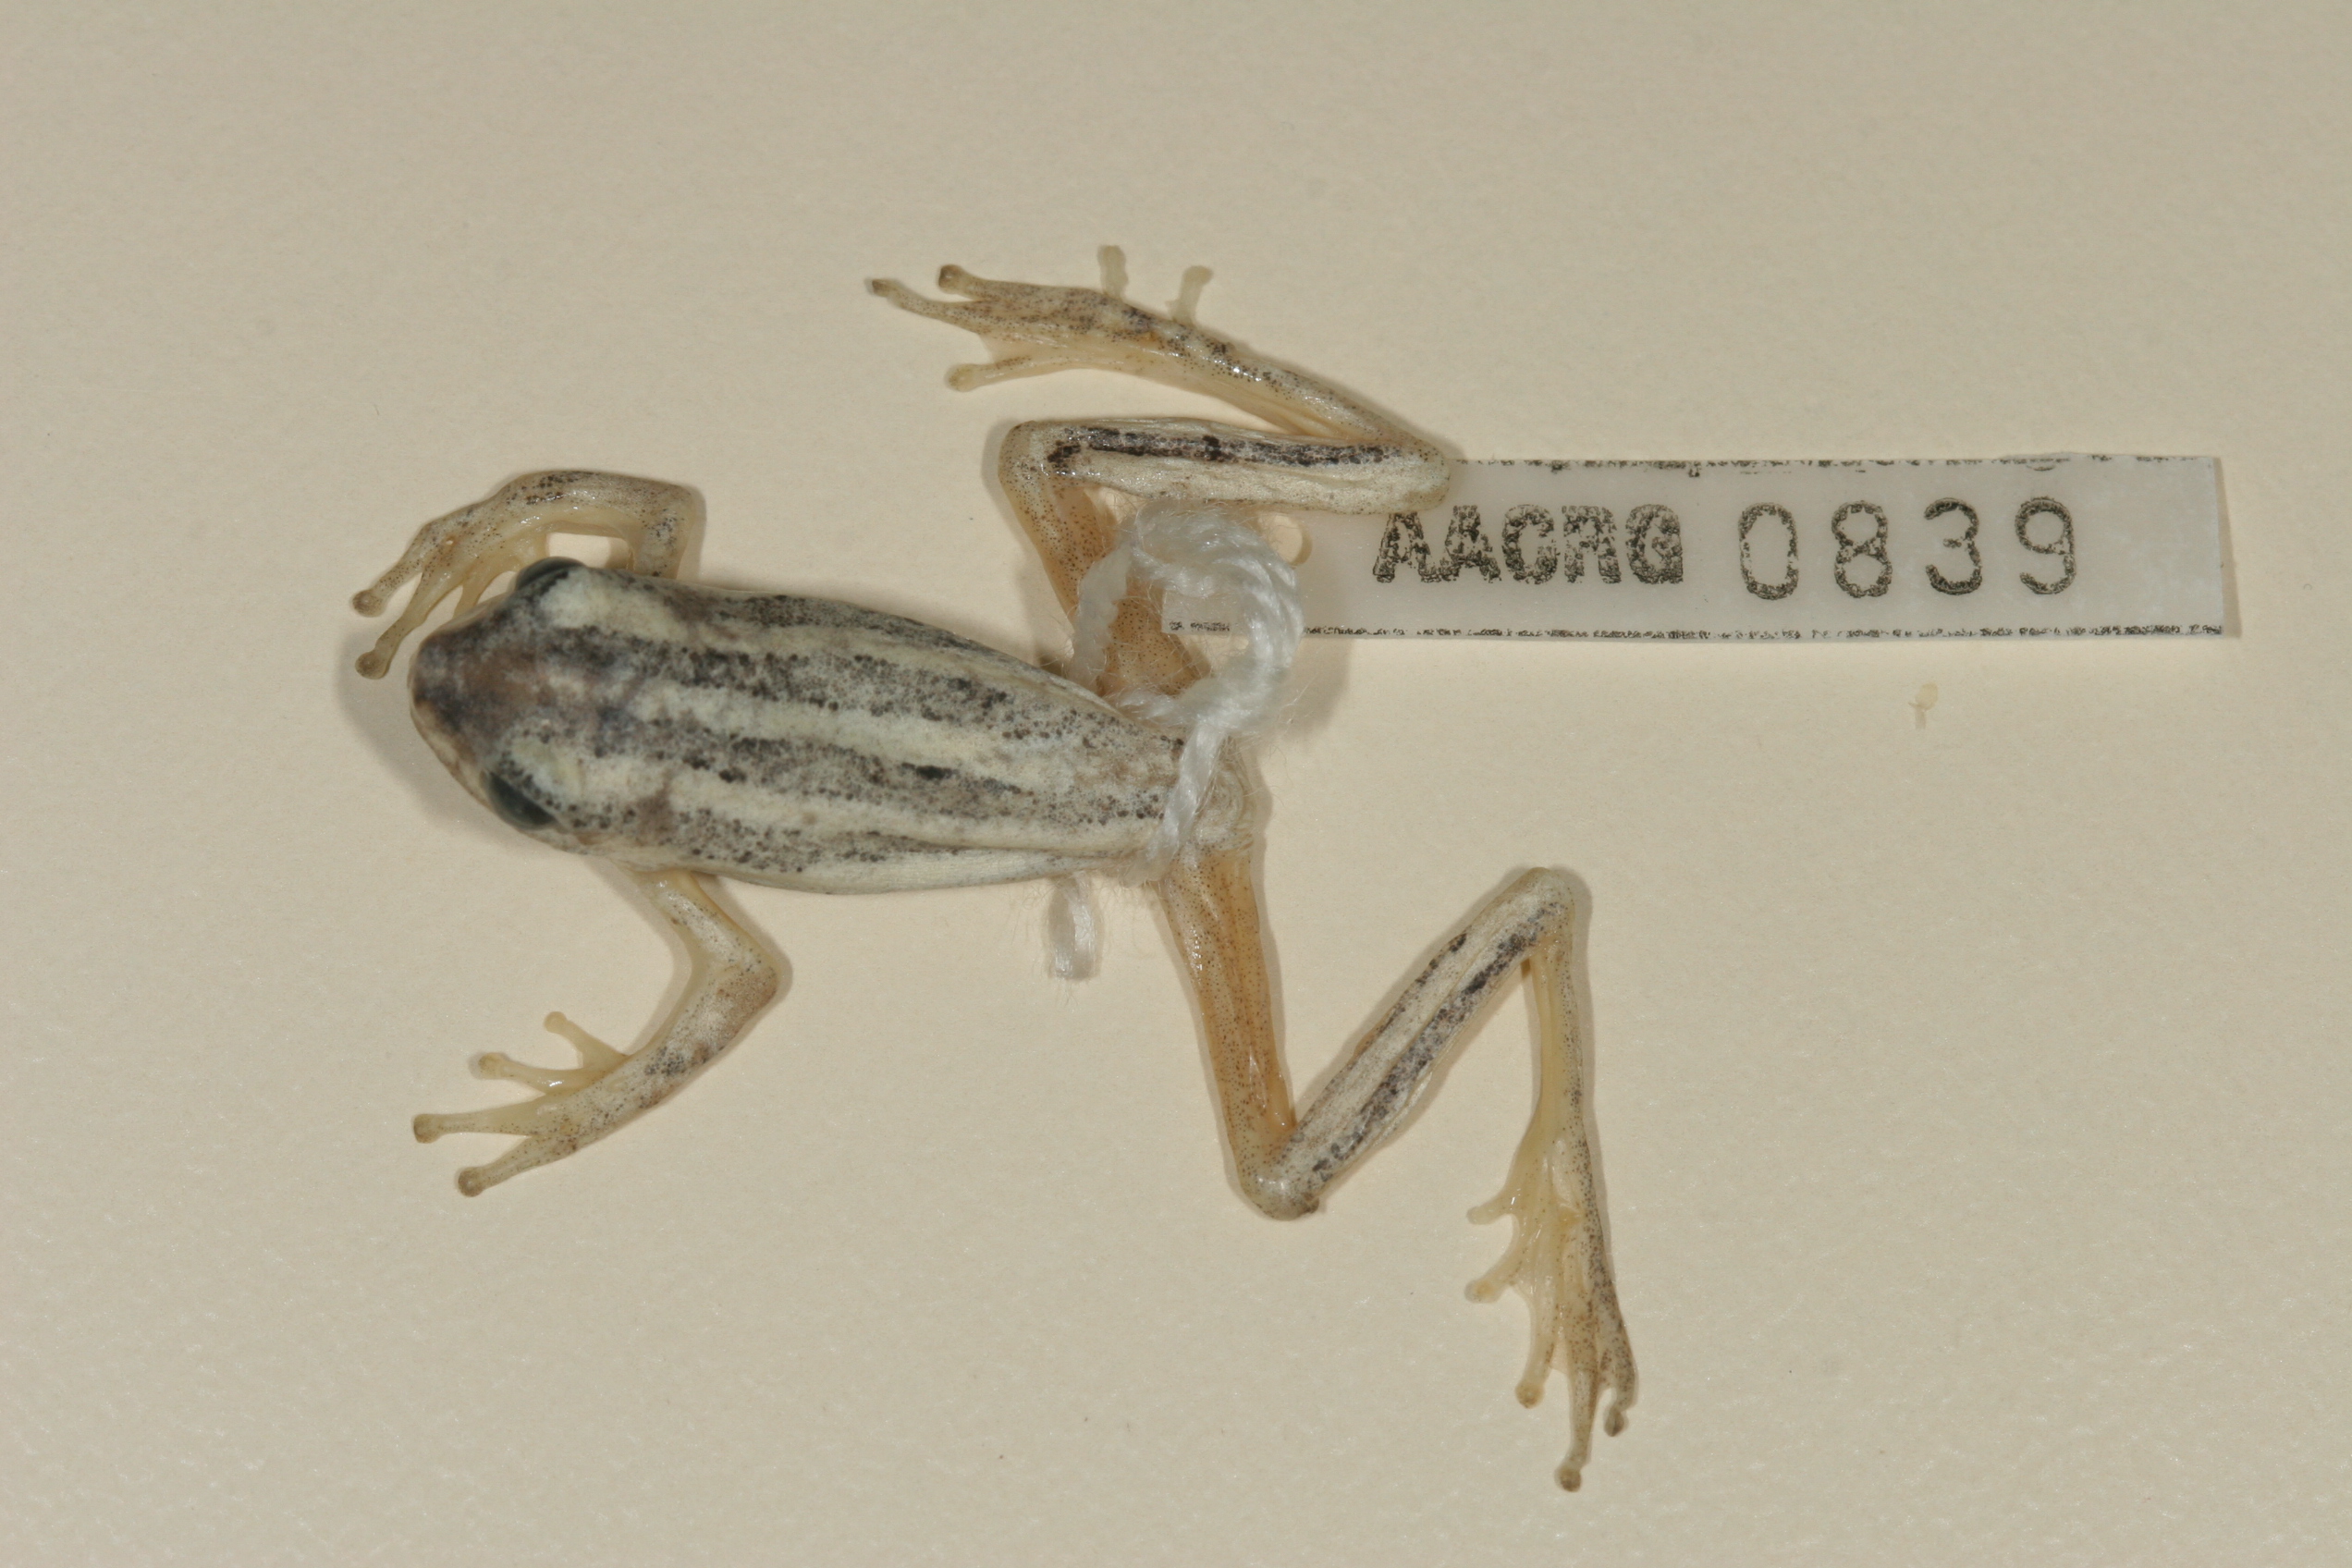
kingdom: Animalia
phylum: Chordata
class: Amphibia
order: Anura
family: Hyperoliidae
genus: Hyperolius
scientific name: Hyperolius marmoratus
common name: Painted reed frog
